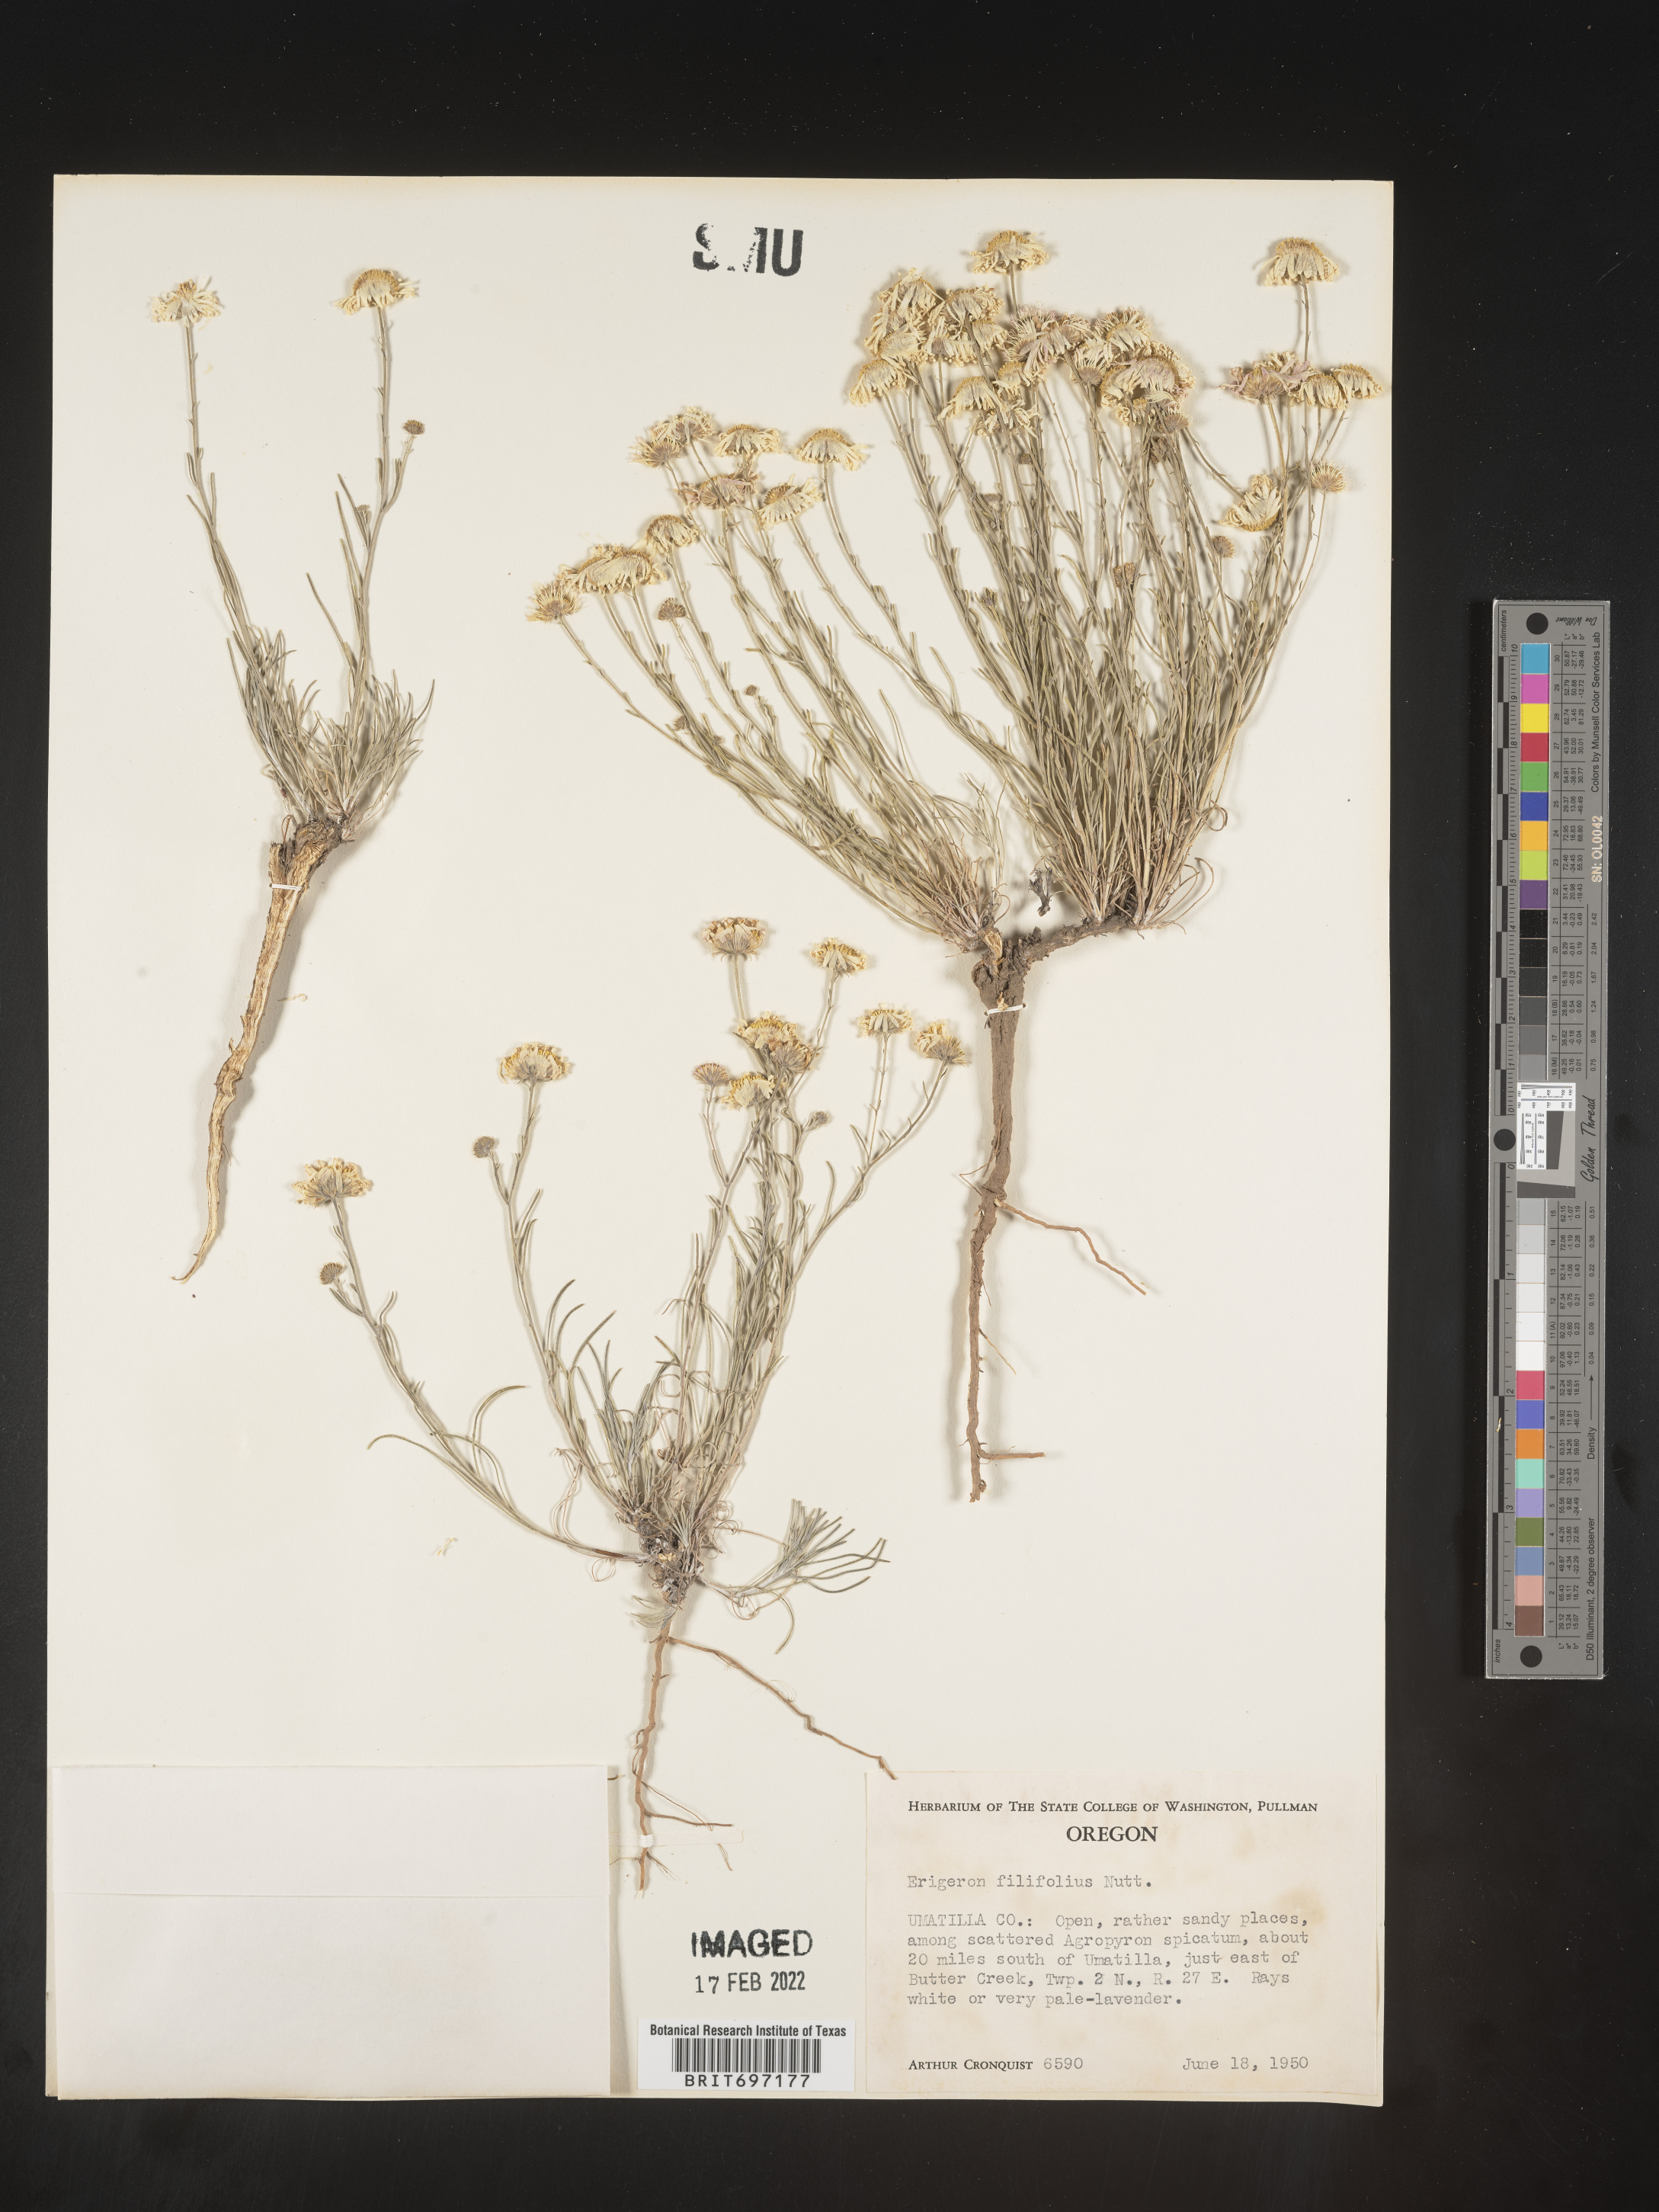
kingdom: Plantae
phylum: Tracheophyta
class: Magnoliopsida
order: Asterales
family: Asteraceae
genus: Erigeron
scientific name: Erigeron filifolius
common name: Threadleaf fleabane
